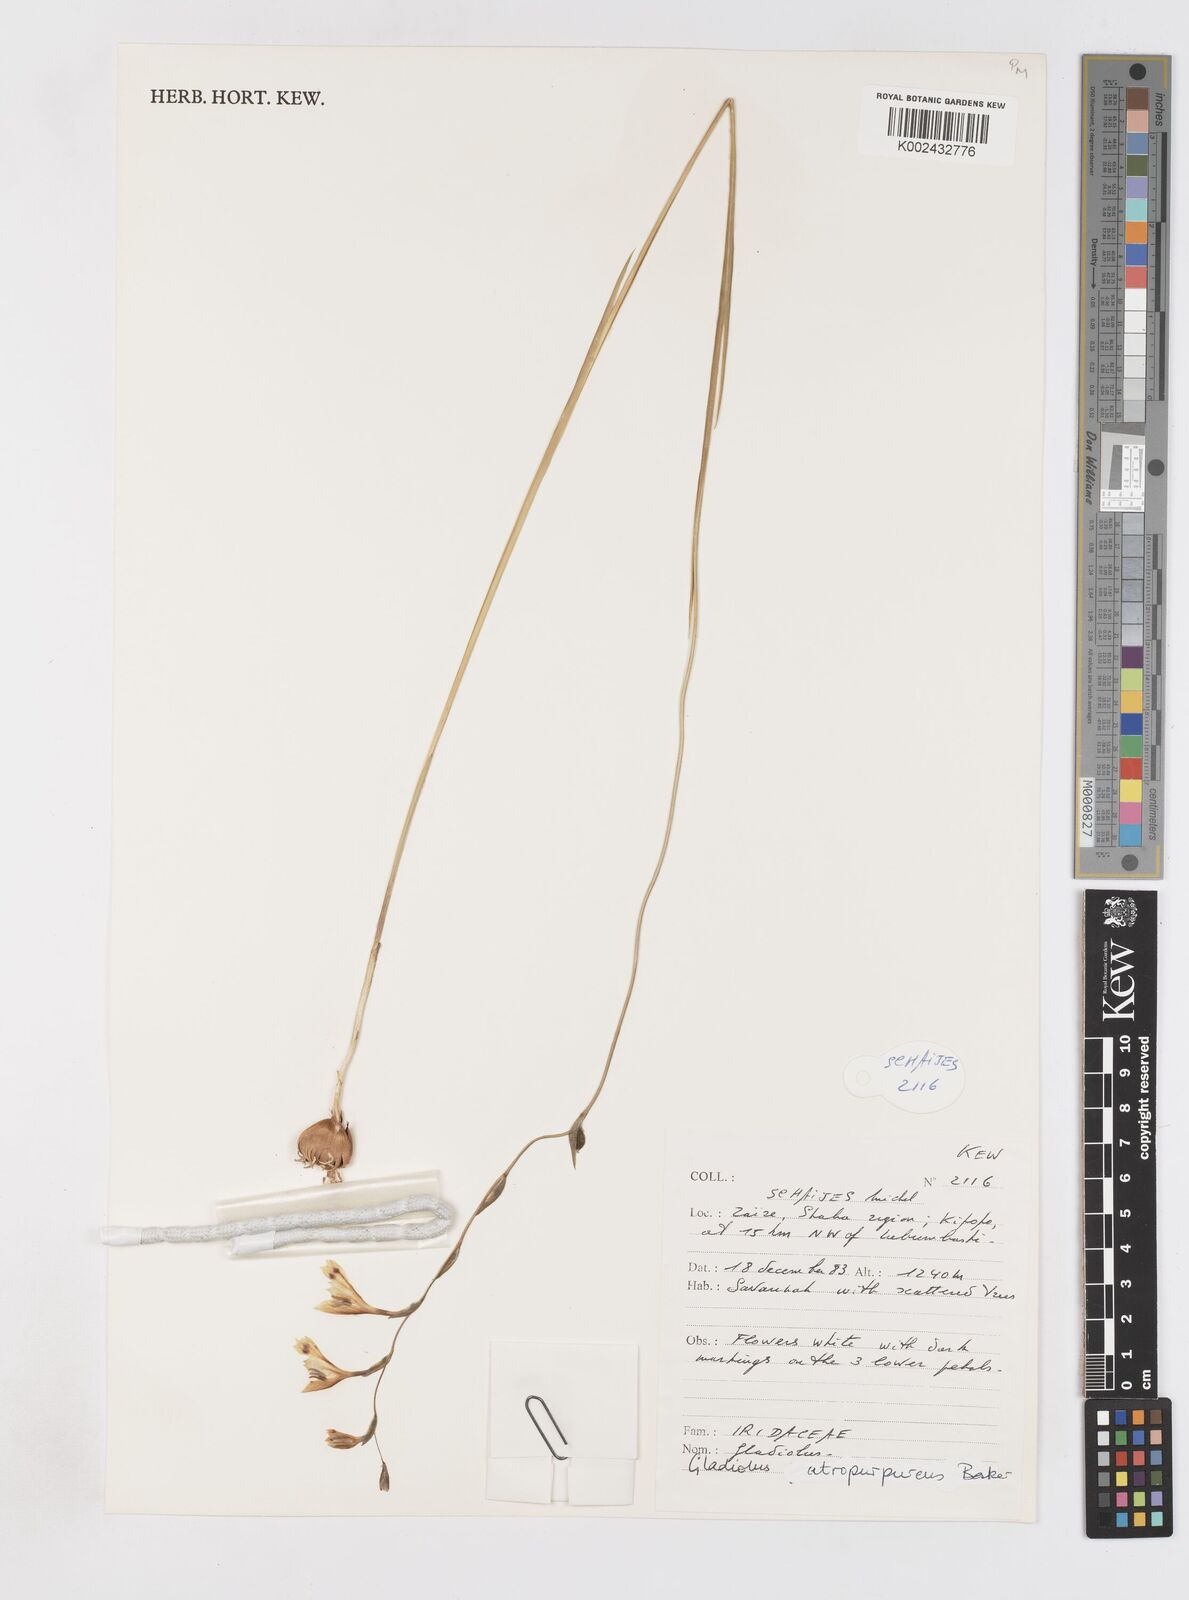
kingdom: Plantae
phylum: Tracheophyta
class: Liliopsida
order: Asparagales
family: Iridaceae
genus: Gladiolus
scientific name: Gladiolus unguiculatus
